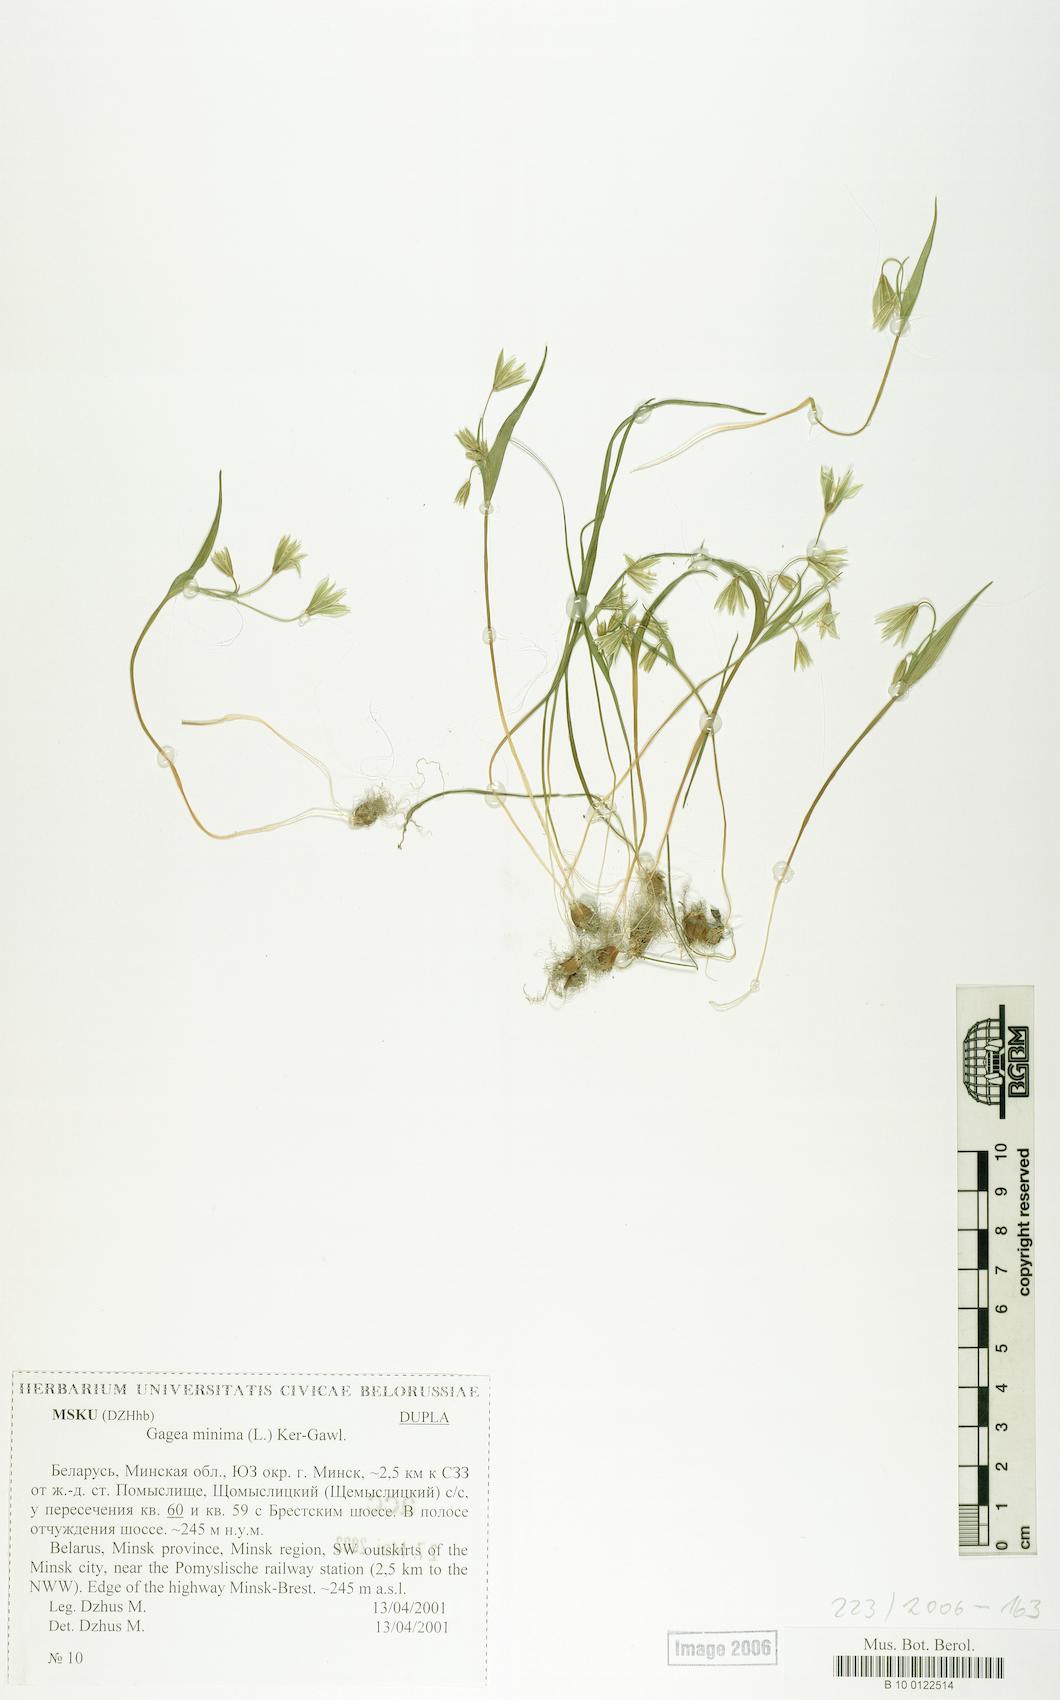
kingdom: Plantae
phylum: Tracheophyta
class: Liliopsida
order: Liliales
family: Liliaceae
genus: Gagea
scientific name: Gagea minima
